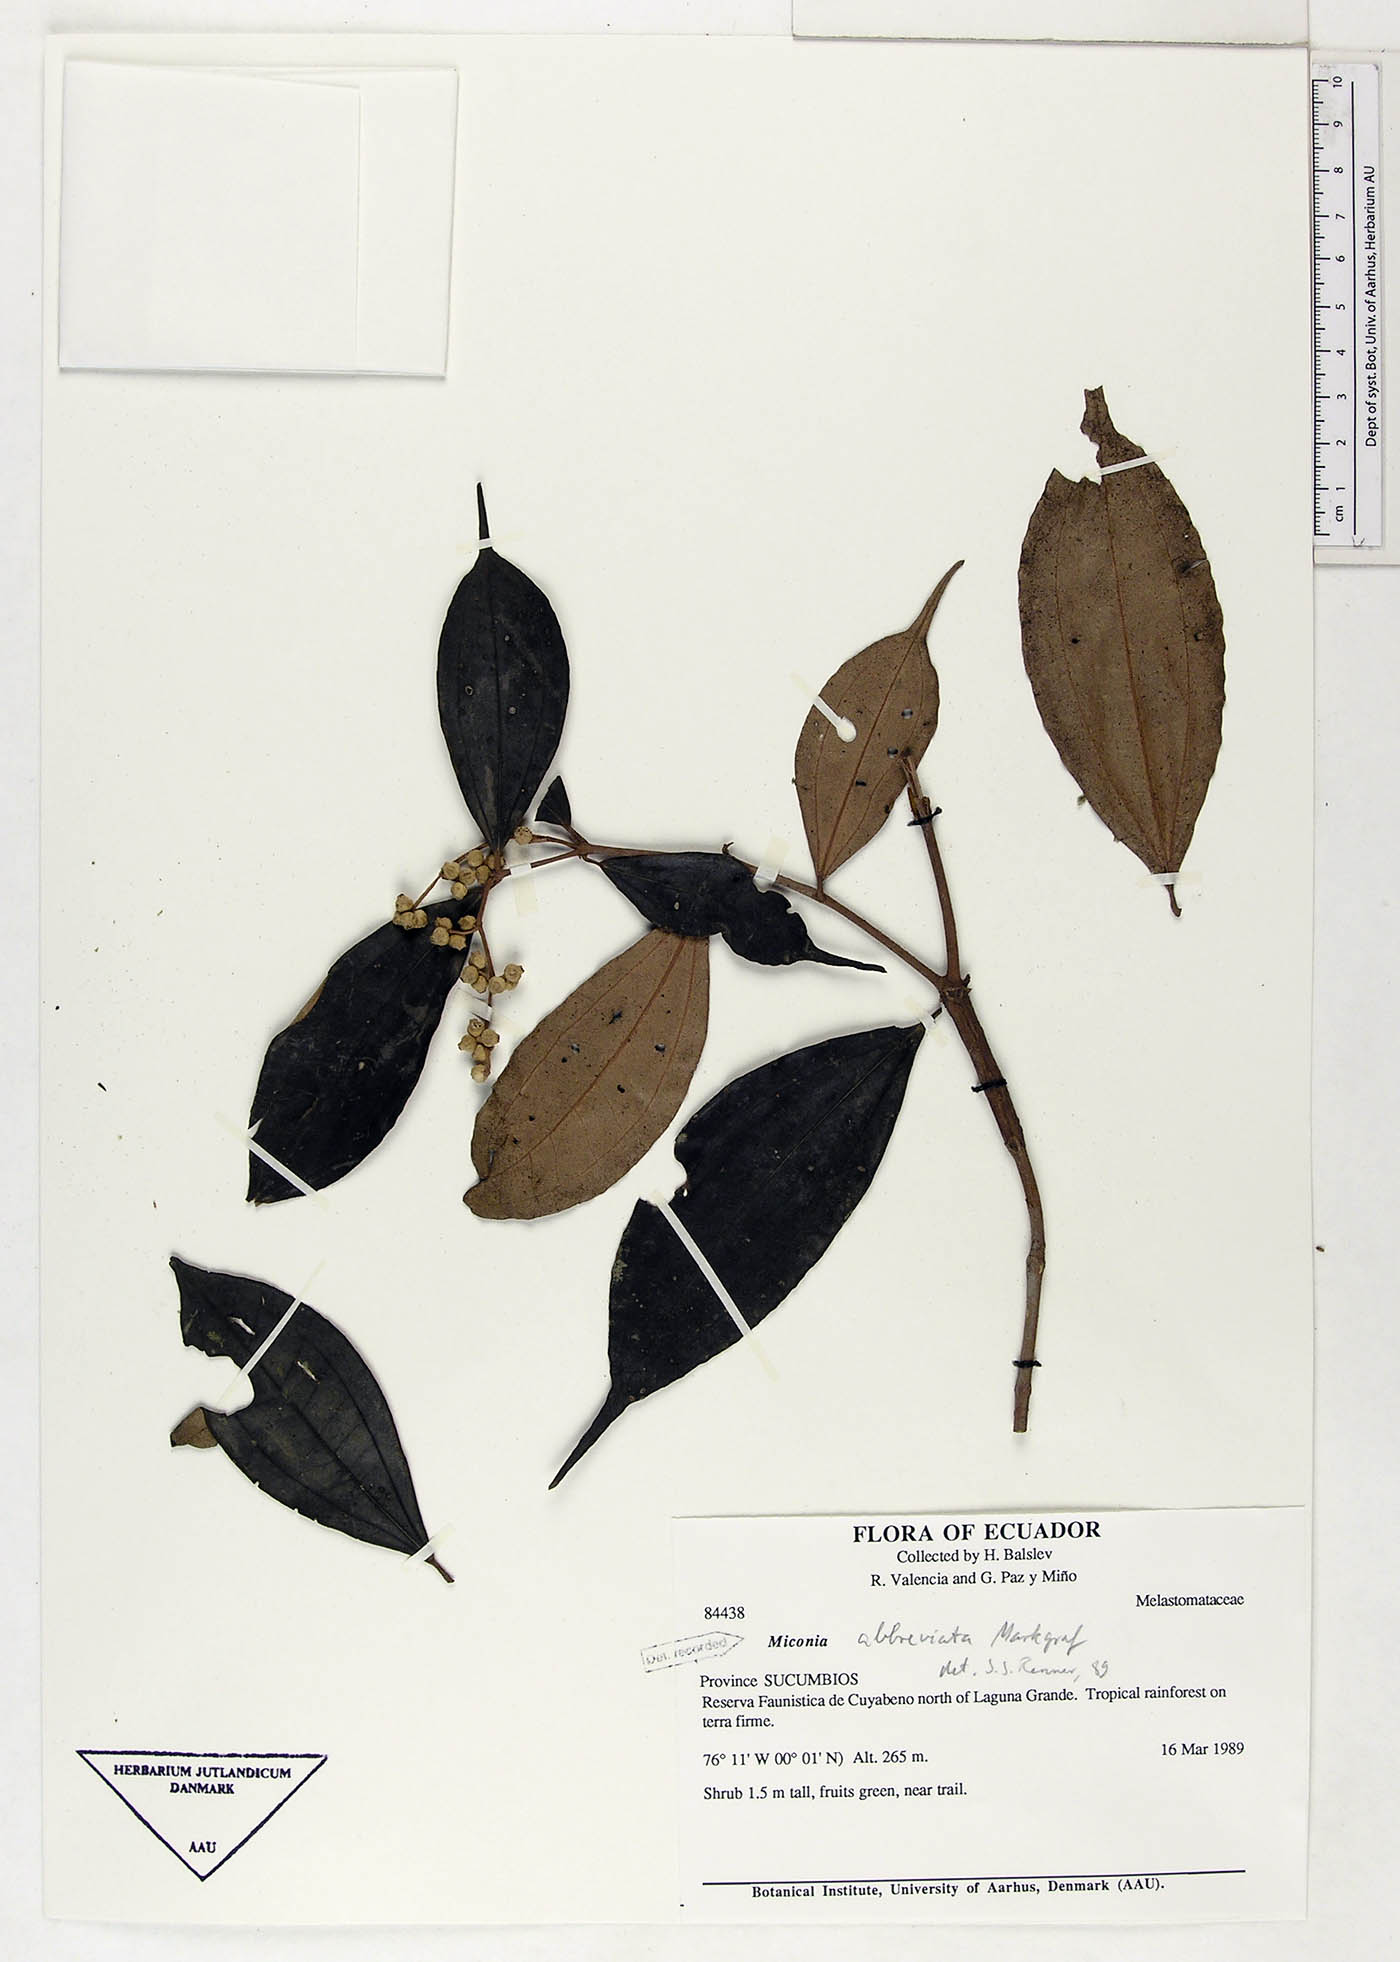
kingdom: Plantae
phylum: Tracheophyta
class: Magnoliopsida
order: Myrtales
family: Melastomataceae
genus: Miconia
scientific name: Miconia abbreviata
